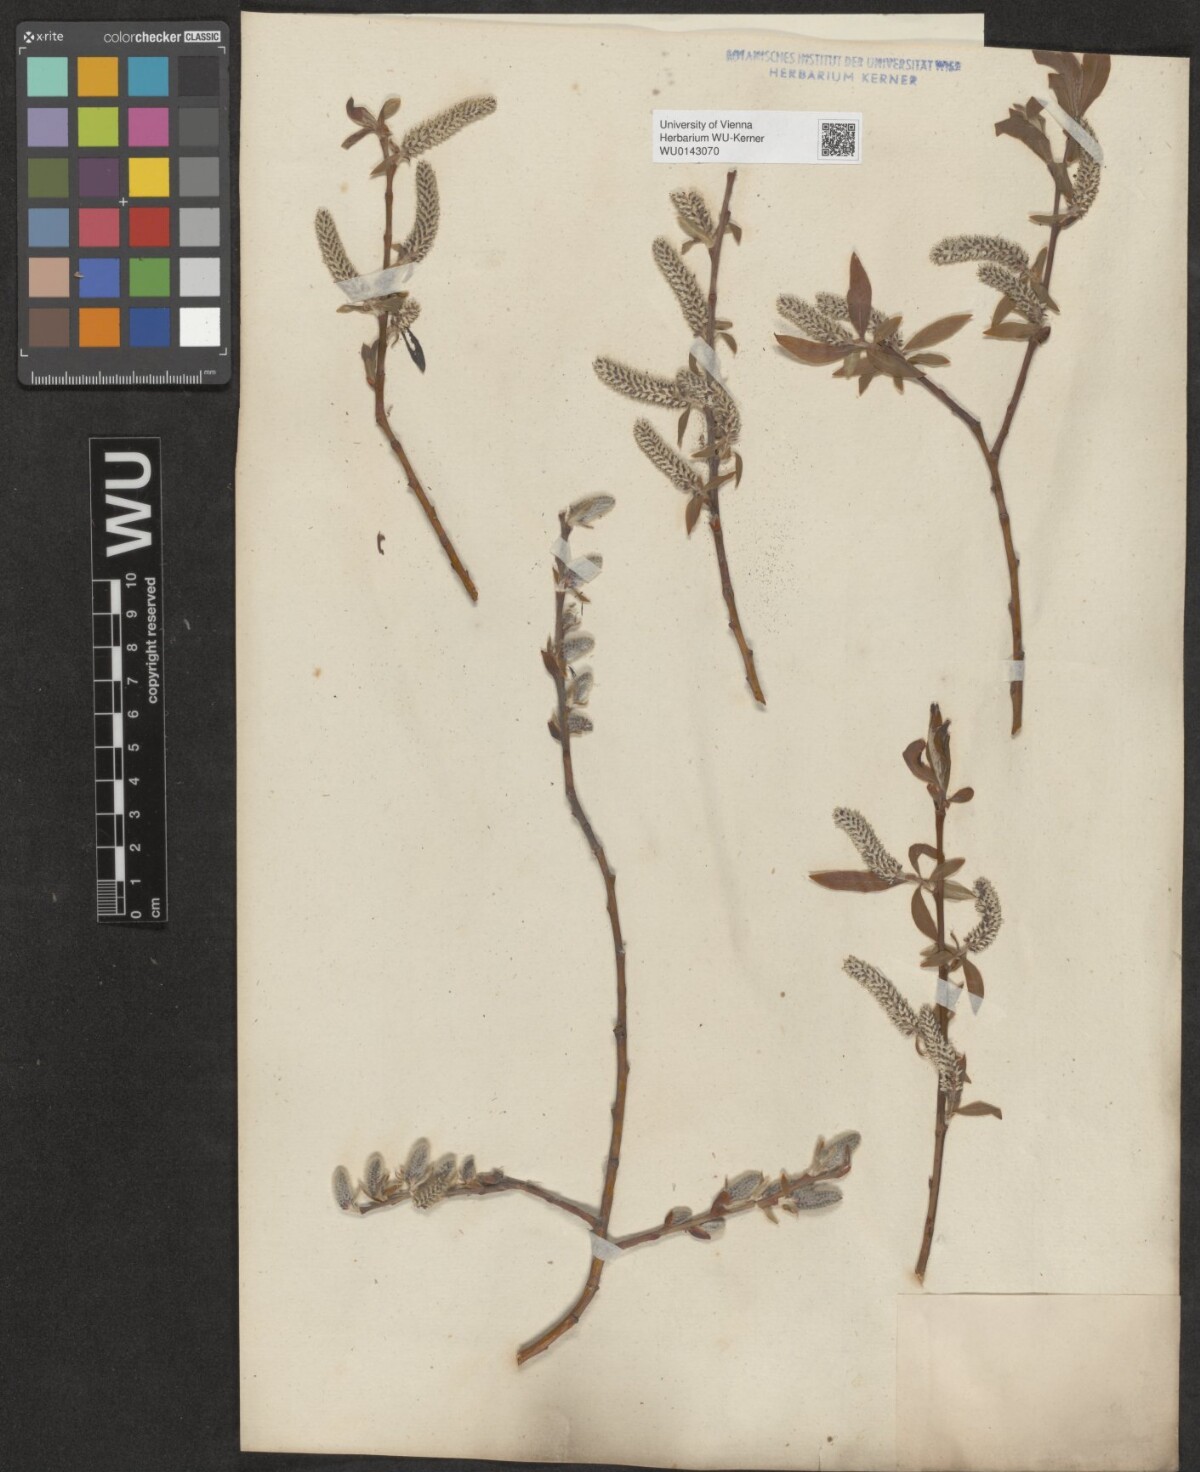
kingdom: Plantae
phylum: Tracheophyta
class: Magnoliopsida
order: Malpighiales
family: Salicaceae
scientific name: Salicaceae
